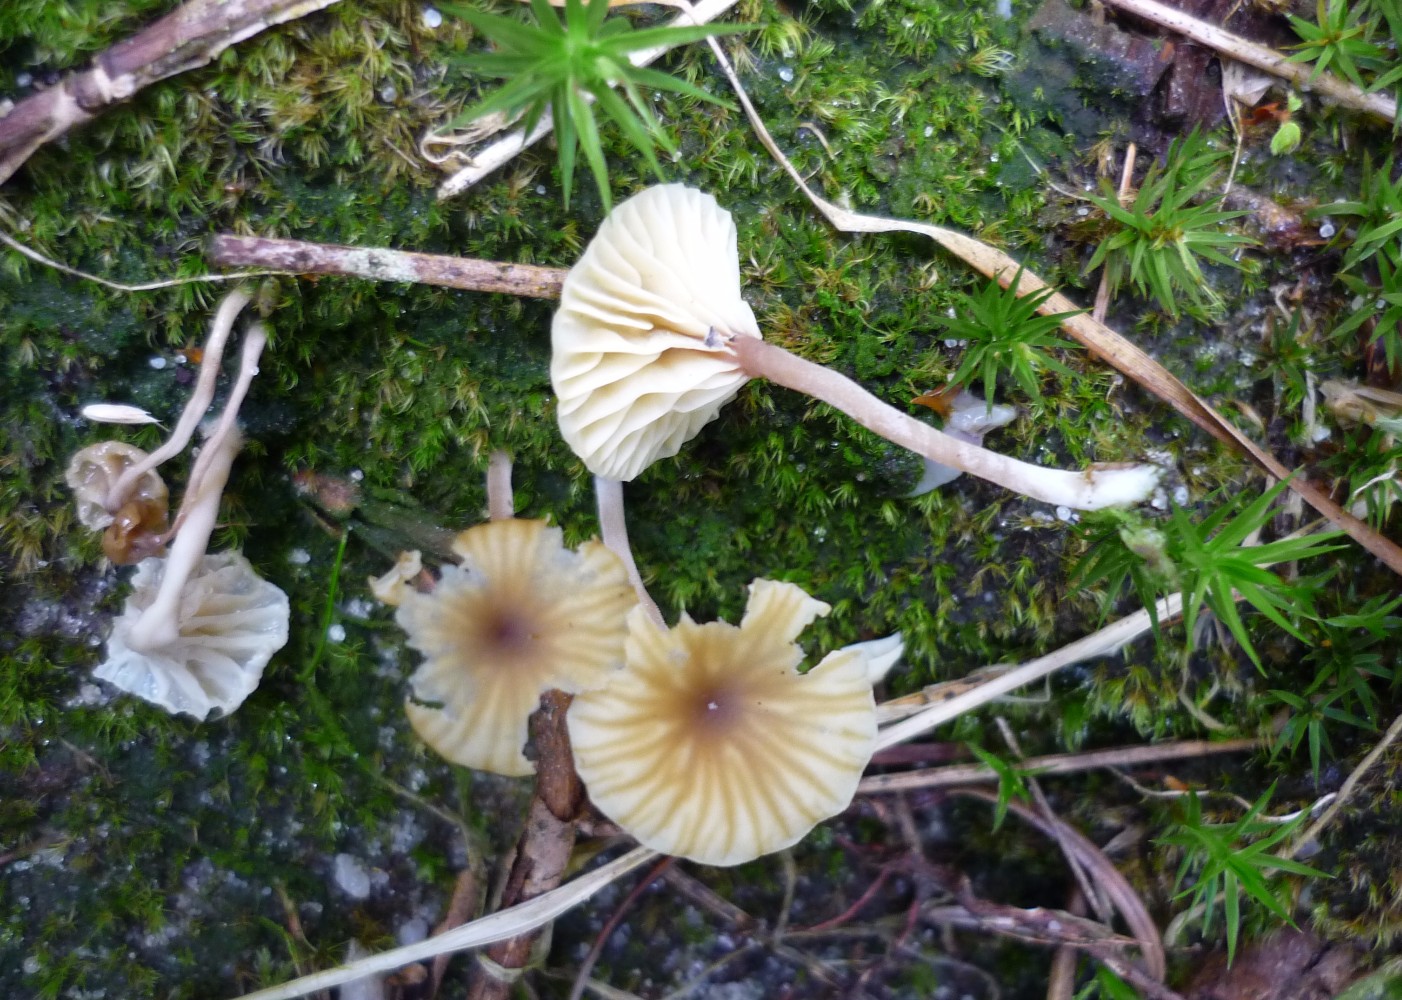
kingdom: Fungi
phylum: Basidiomycota
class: Agaricomycetes
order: Agaricales
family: Hygrophoraceae
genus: Lichenomphalia
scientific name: Lichenomphalia umbellifera
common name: tørve-lavhat
